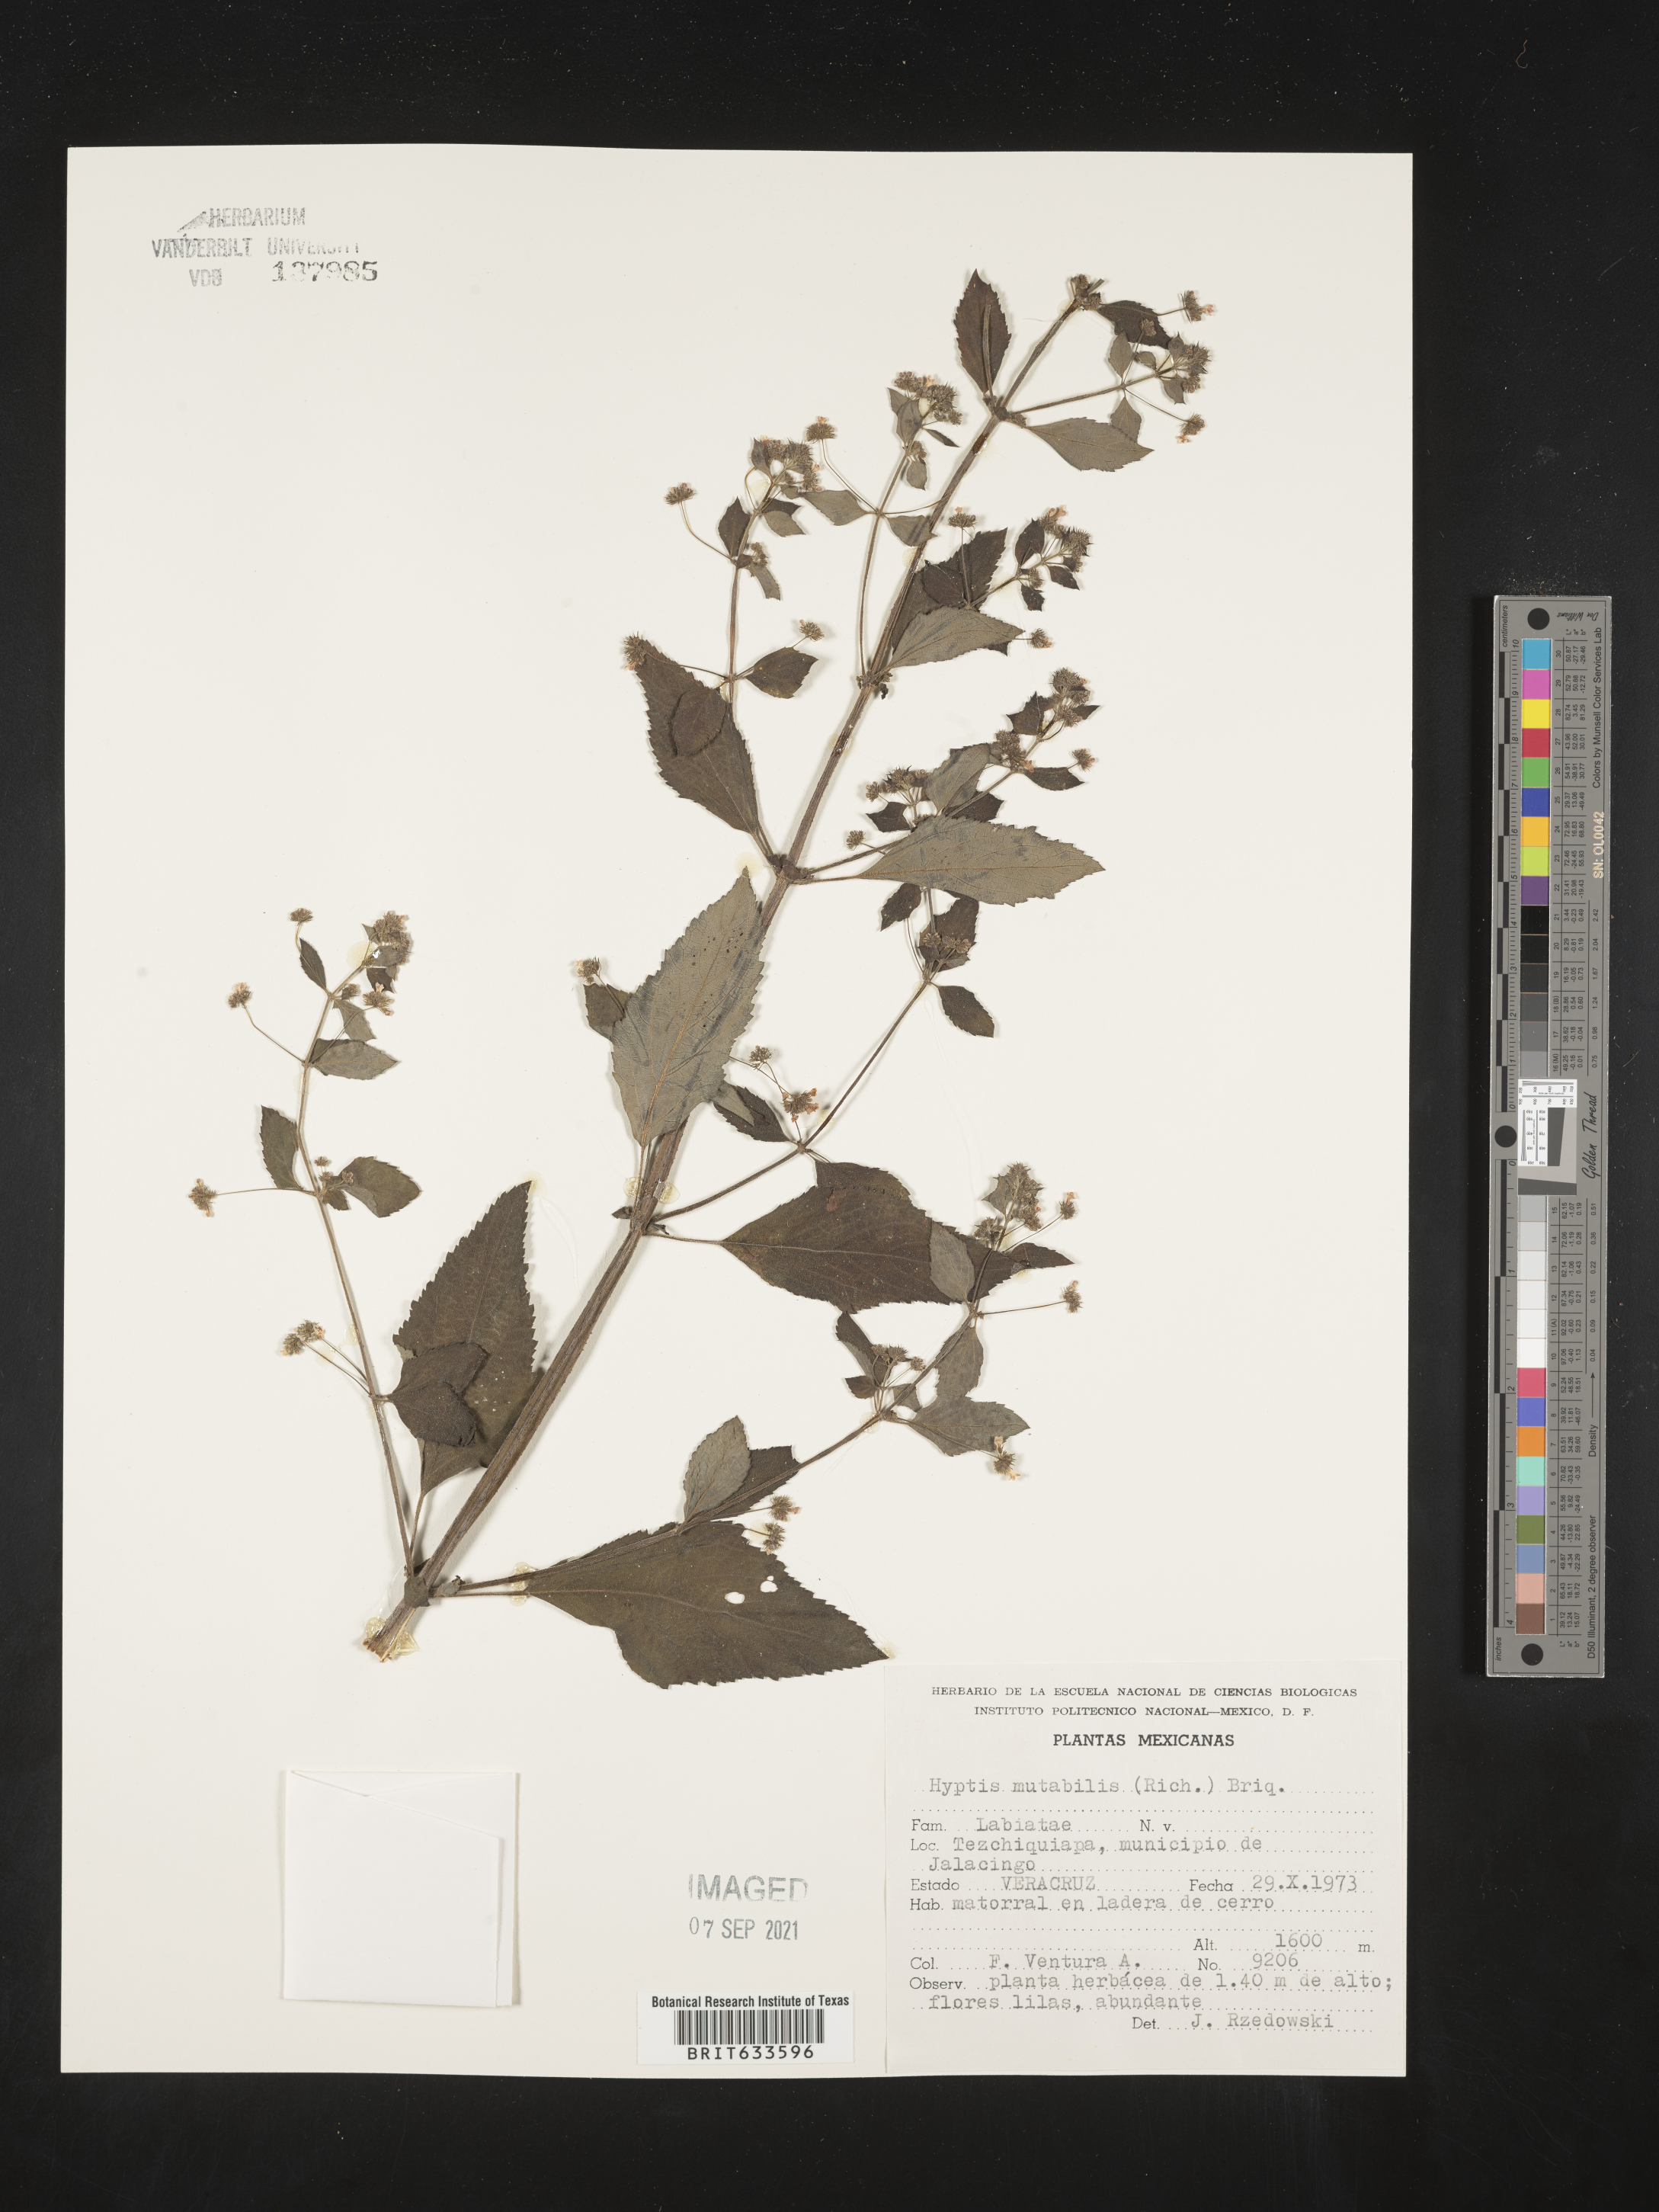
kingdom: Plantae
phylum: Tracheophyta
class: Magnoliopsida
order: Lamiales
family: Lamiaceae
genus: Hyptis
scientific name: Hyptis
